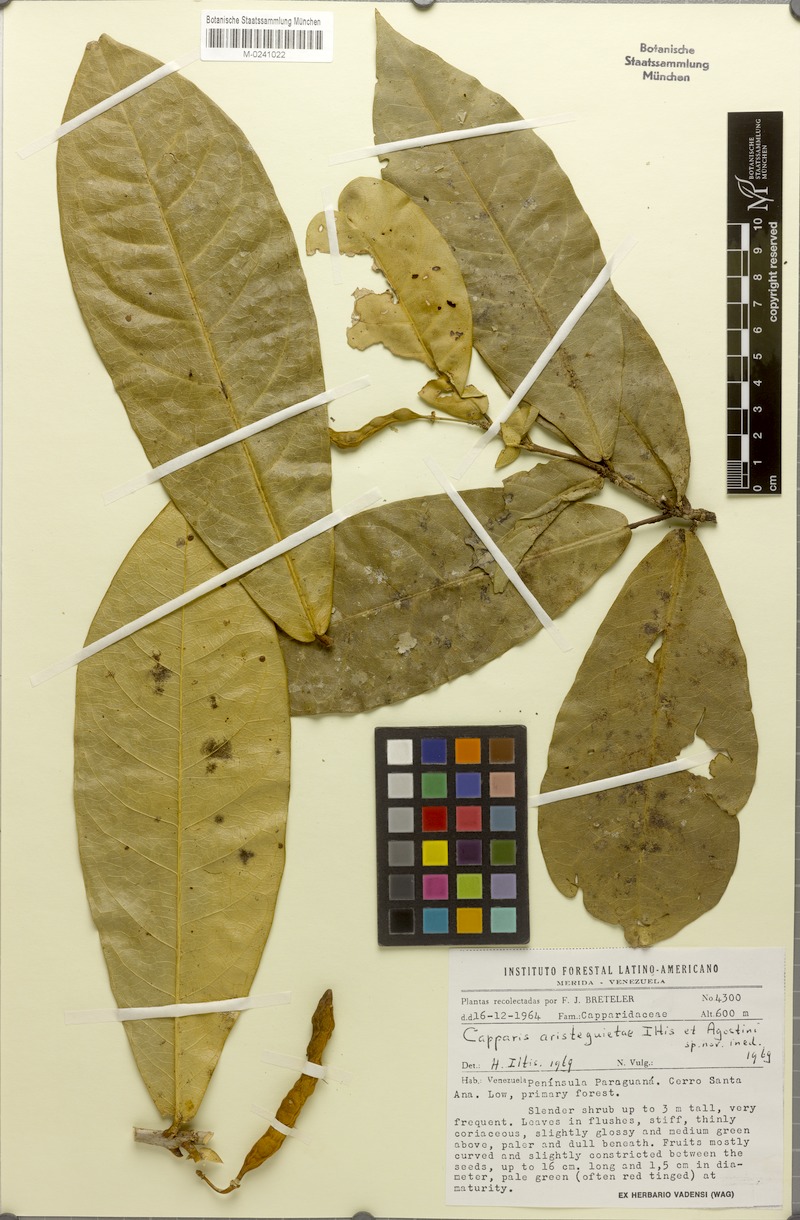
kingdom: Plantae
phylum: Tracheophyta
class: Magnoliopsida
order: Brassicales
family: Capparaceae
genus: Capparis
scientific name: Capparis
